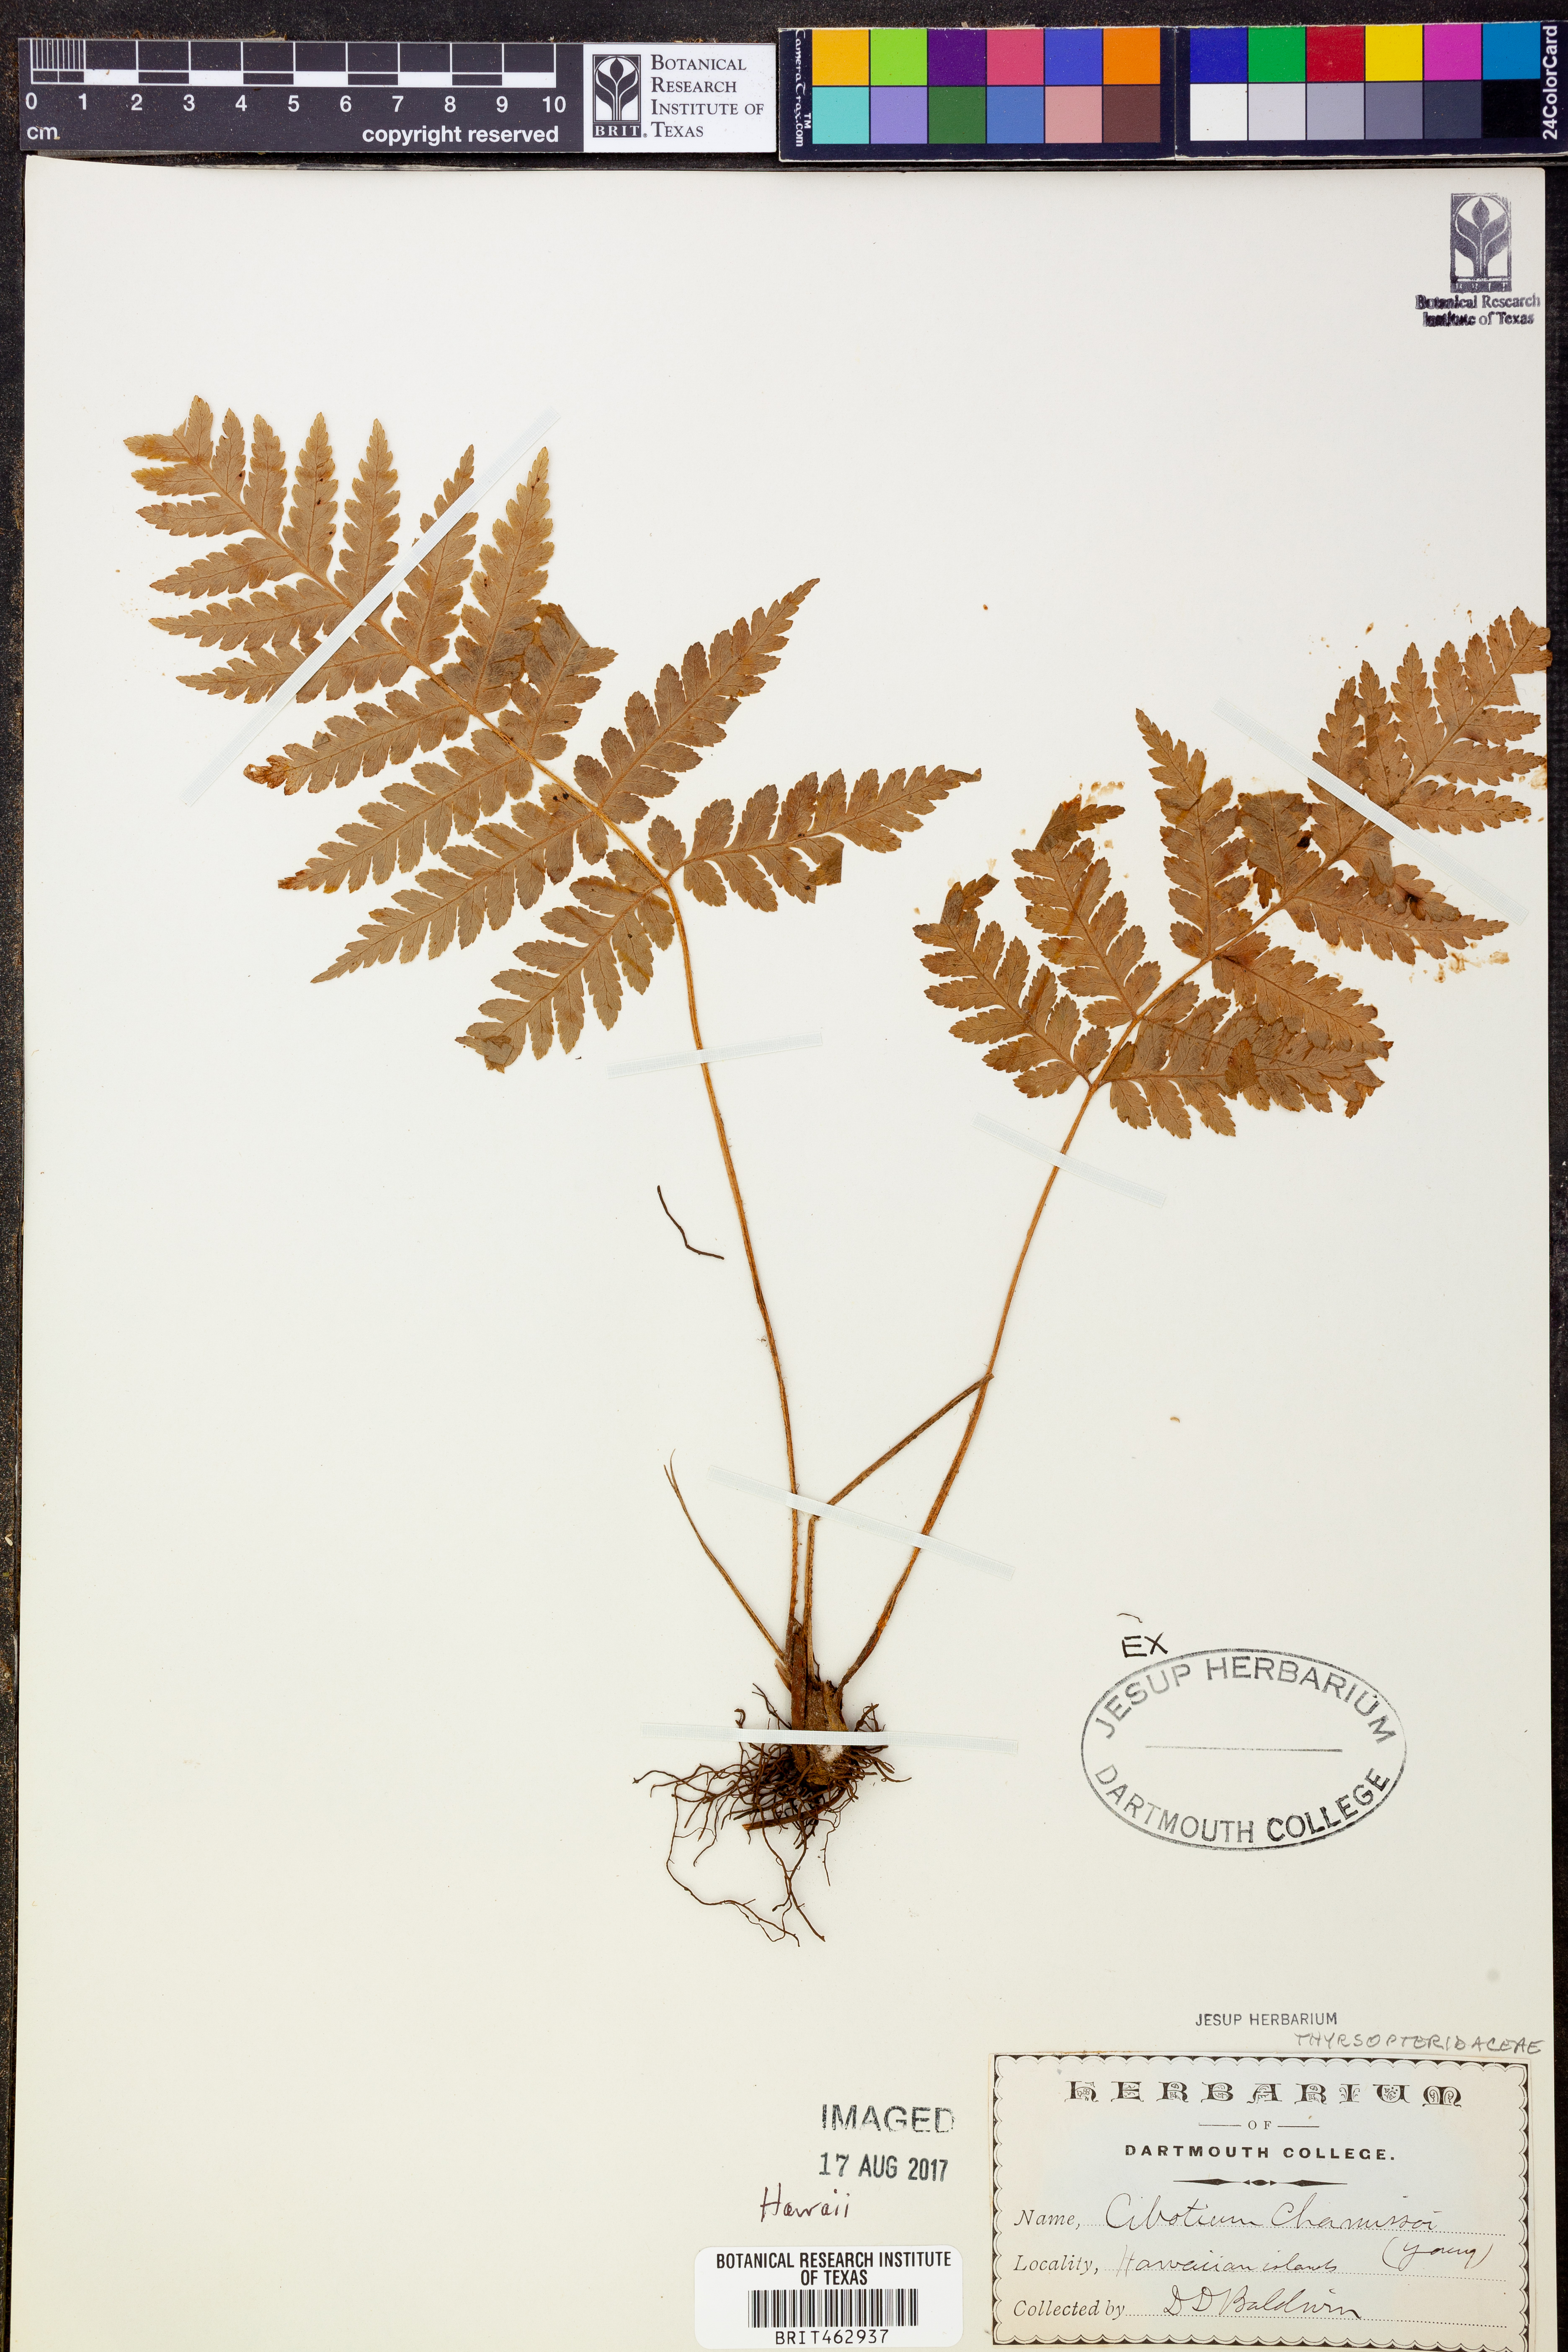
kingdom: Plantae
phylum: Tracheophyta
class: Polypodiopsida
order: Cyatheales
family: Cibotiaceae
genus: Cibotium
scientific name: Cibotium chamissoi
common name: Hawaiian tree fern
